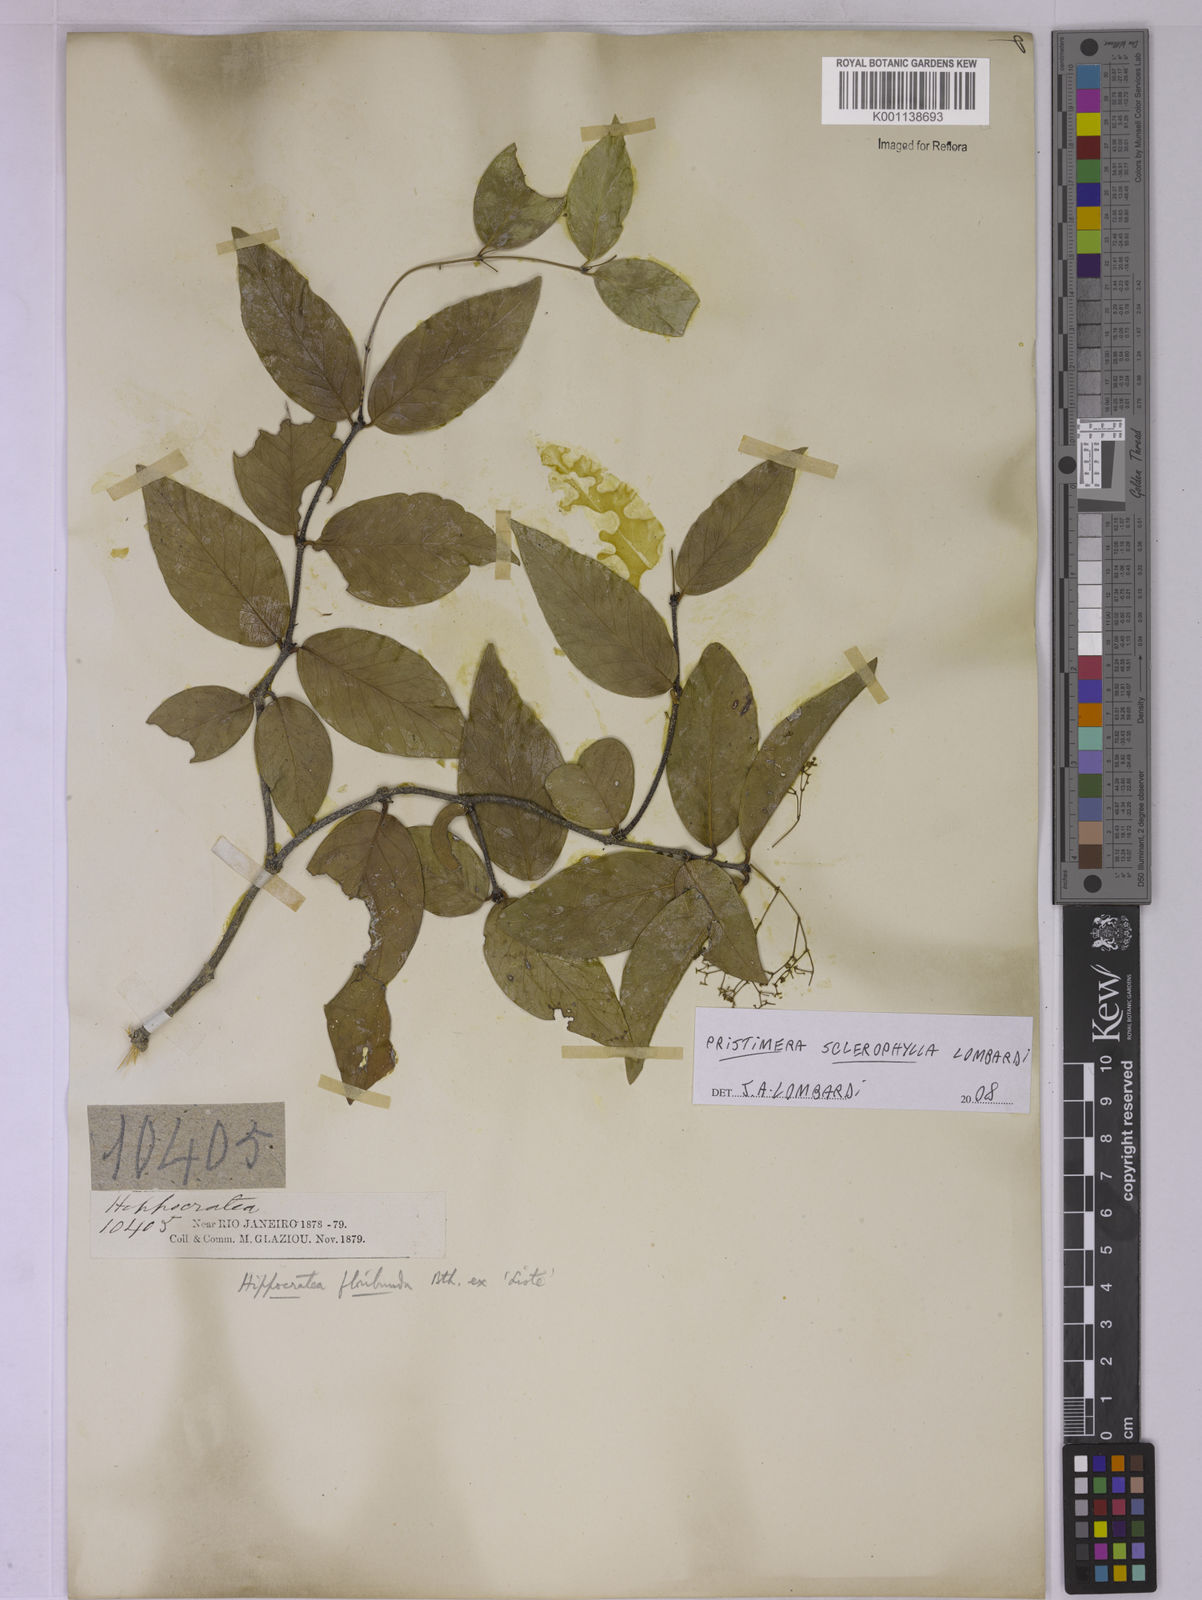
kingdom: Plantae
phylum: Tracheophyta
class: Magnoliopsida
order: Celastrales
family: Celastraceae
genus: Pristimera
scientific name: Pristimera sclerophylla
